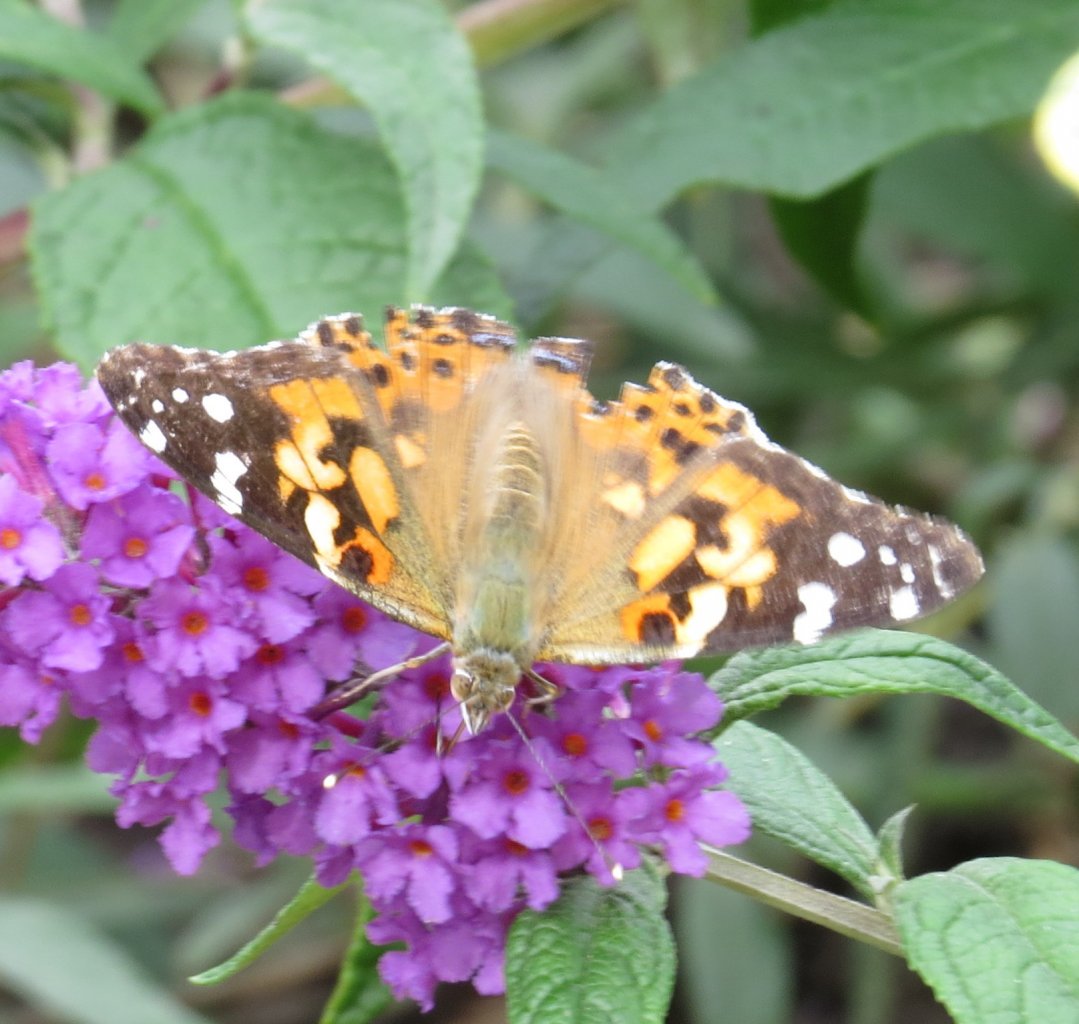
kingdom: Animalia
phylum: Arthropoda
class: Insecta
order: Lepidoptera
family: Nymphalidae
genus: Vanessa
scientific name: Vanessa cardui
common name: Painted Lady
